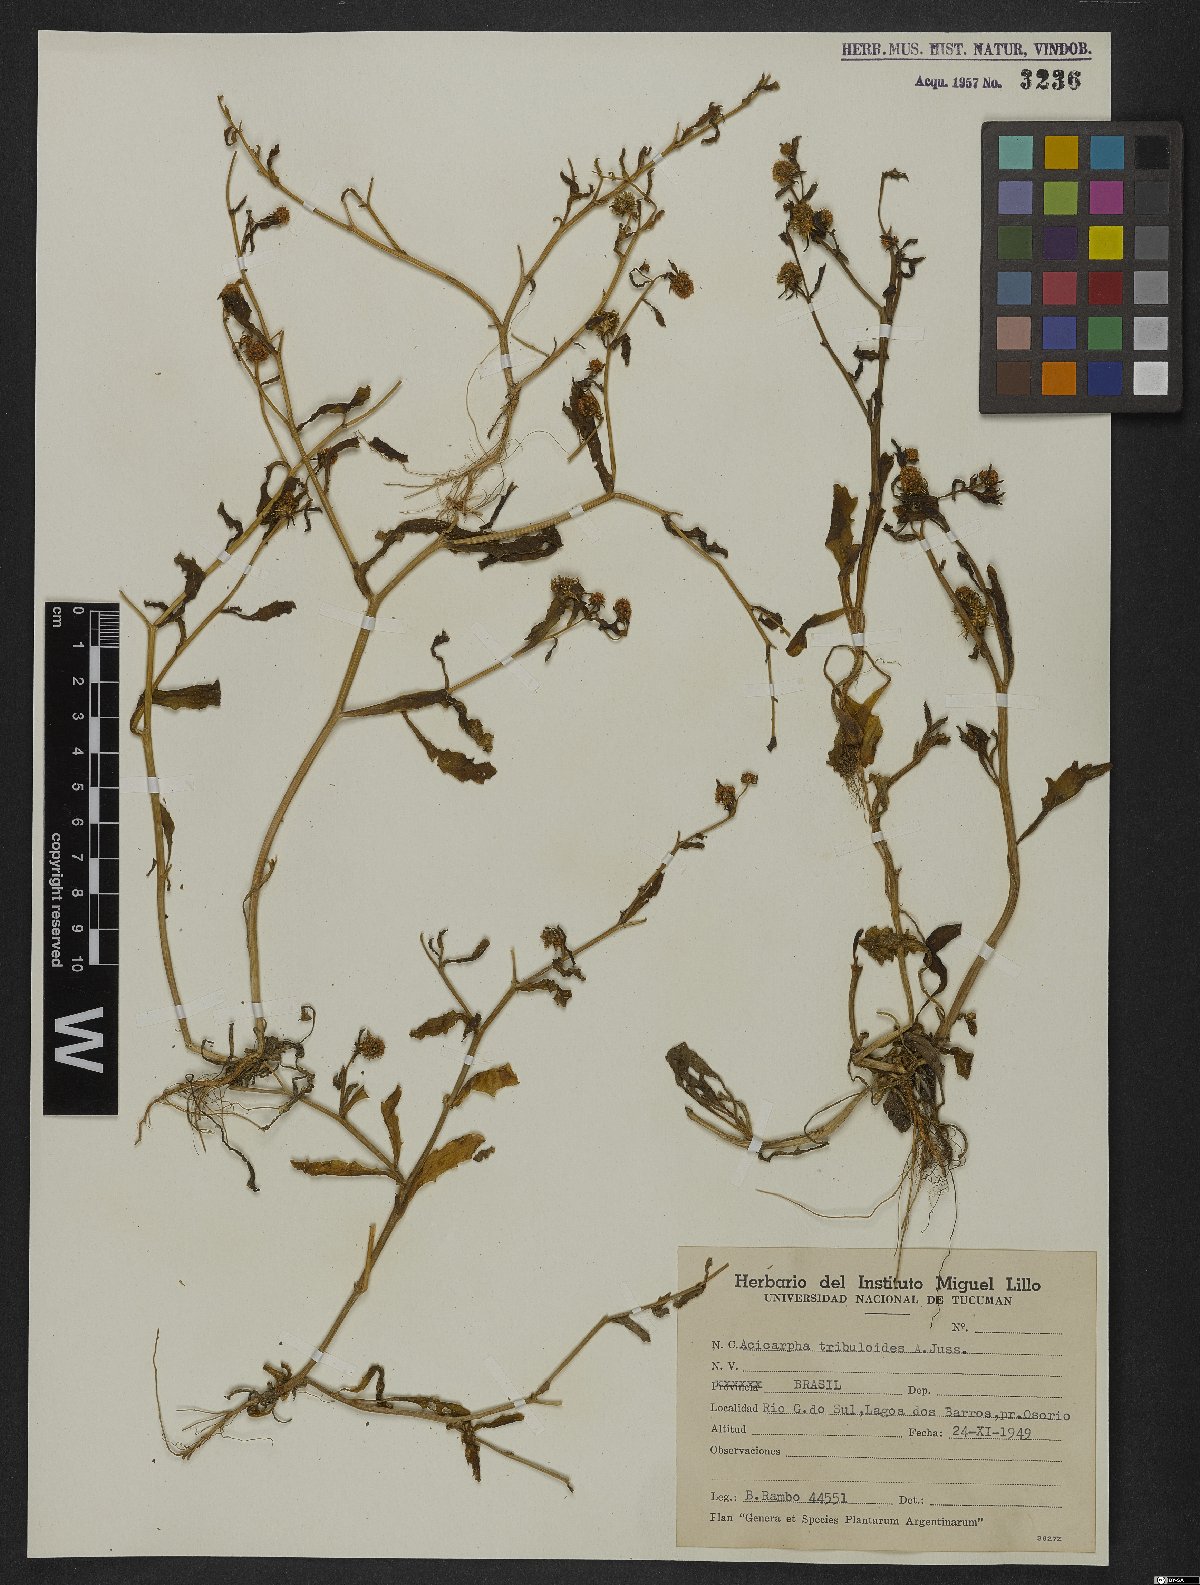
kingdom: Plantae
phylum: Tracheophyta
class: Magnoliopsida
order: Asterales
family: Calyceraceae
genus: Acicarpha
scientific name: Acicarpha tribuloides
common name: Madam gorgon
